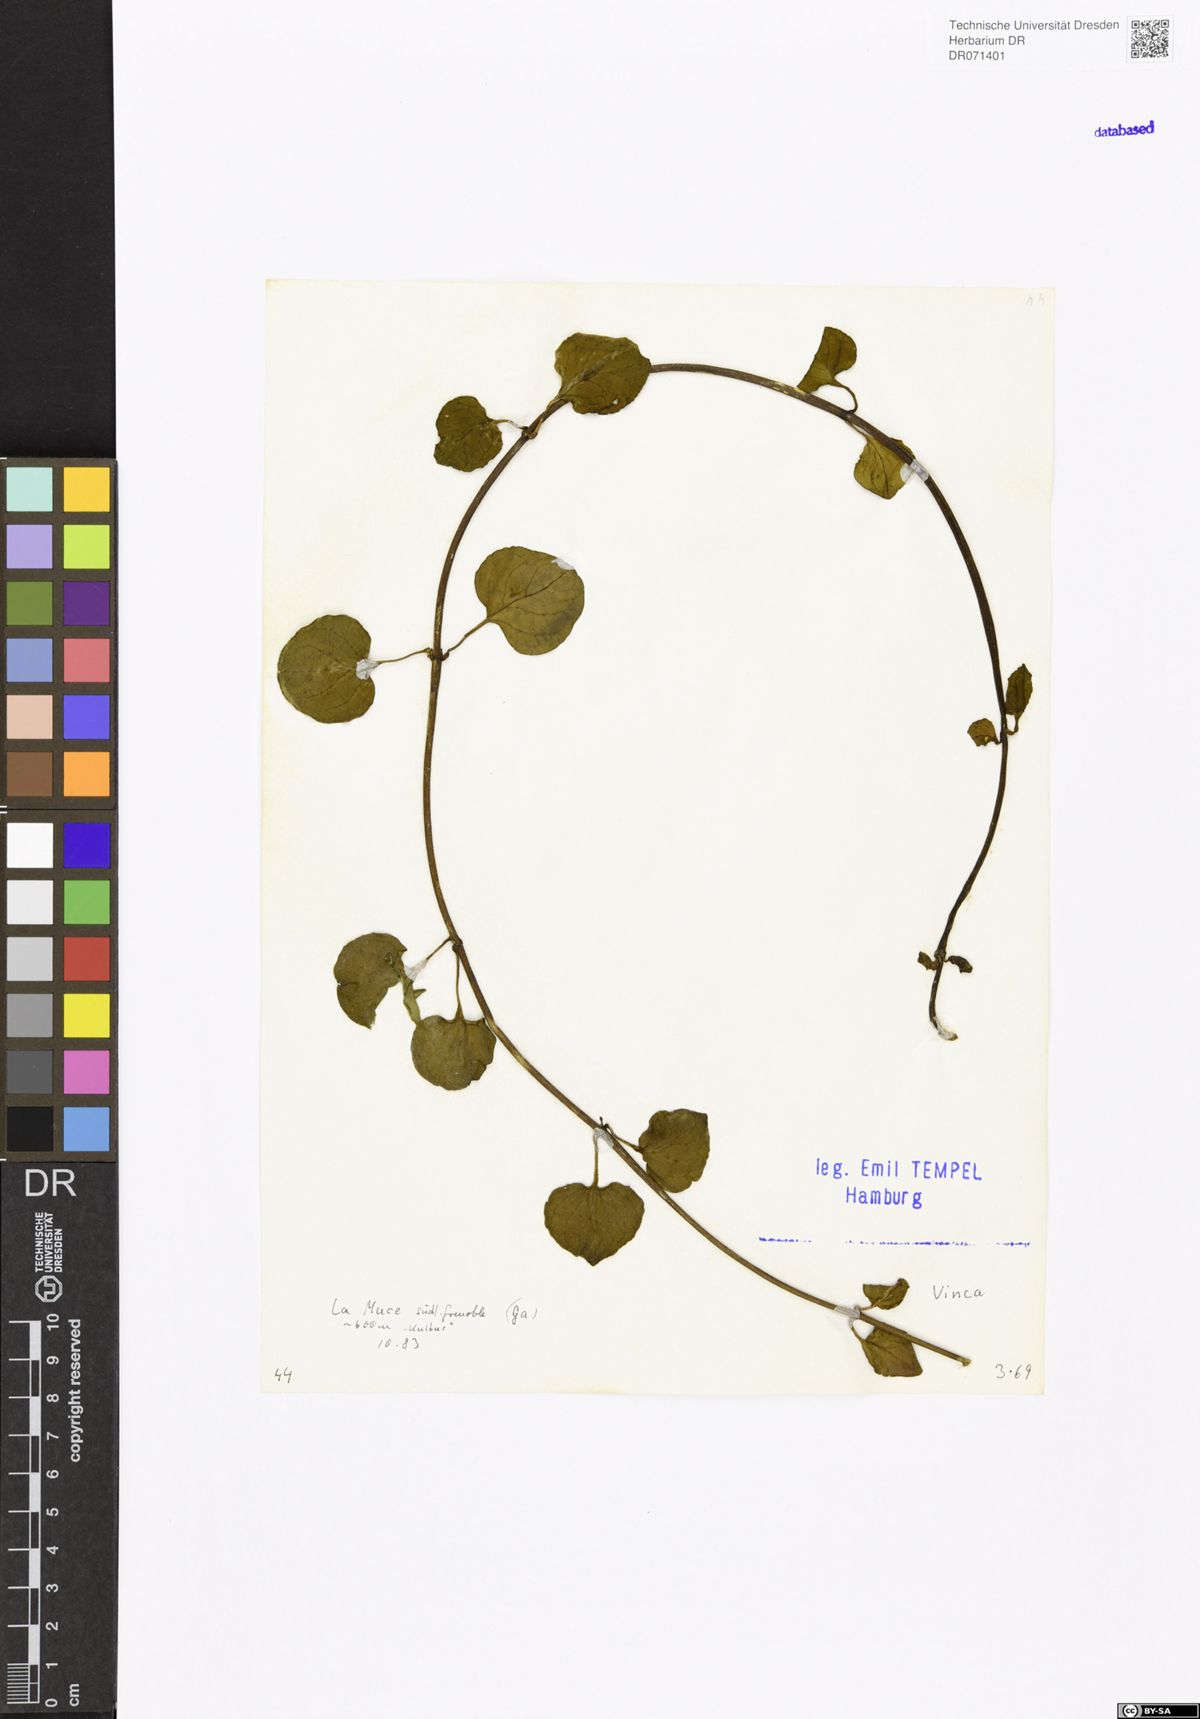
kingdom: Plantae
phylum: Tracheophyta
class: Magnoliopsida
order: Gentianales
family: Apocynaceae
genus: Vinca
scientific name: Vinca
